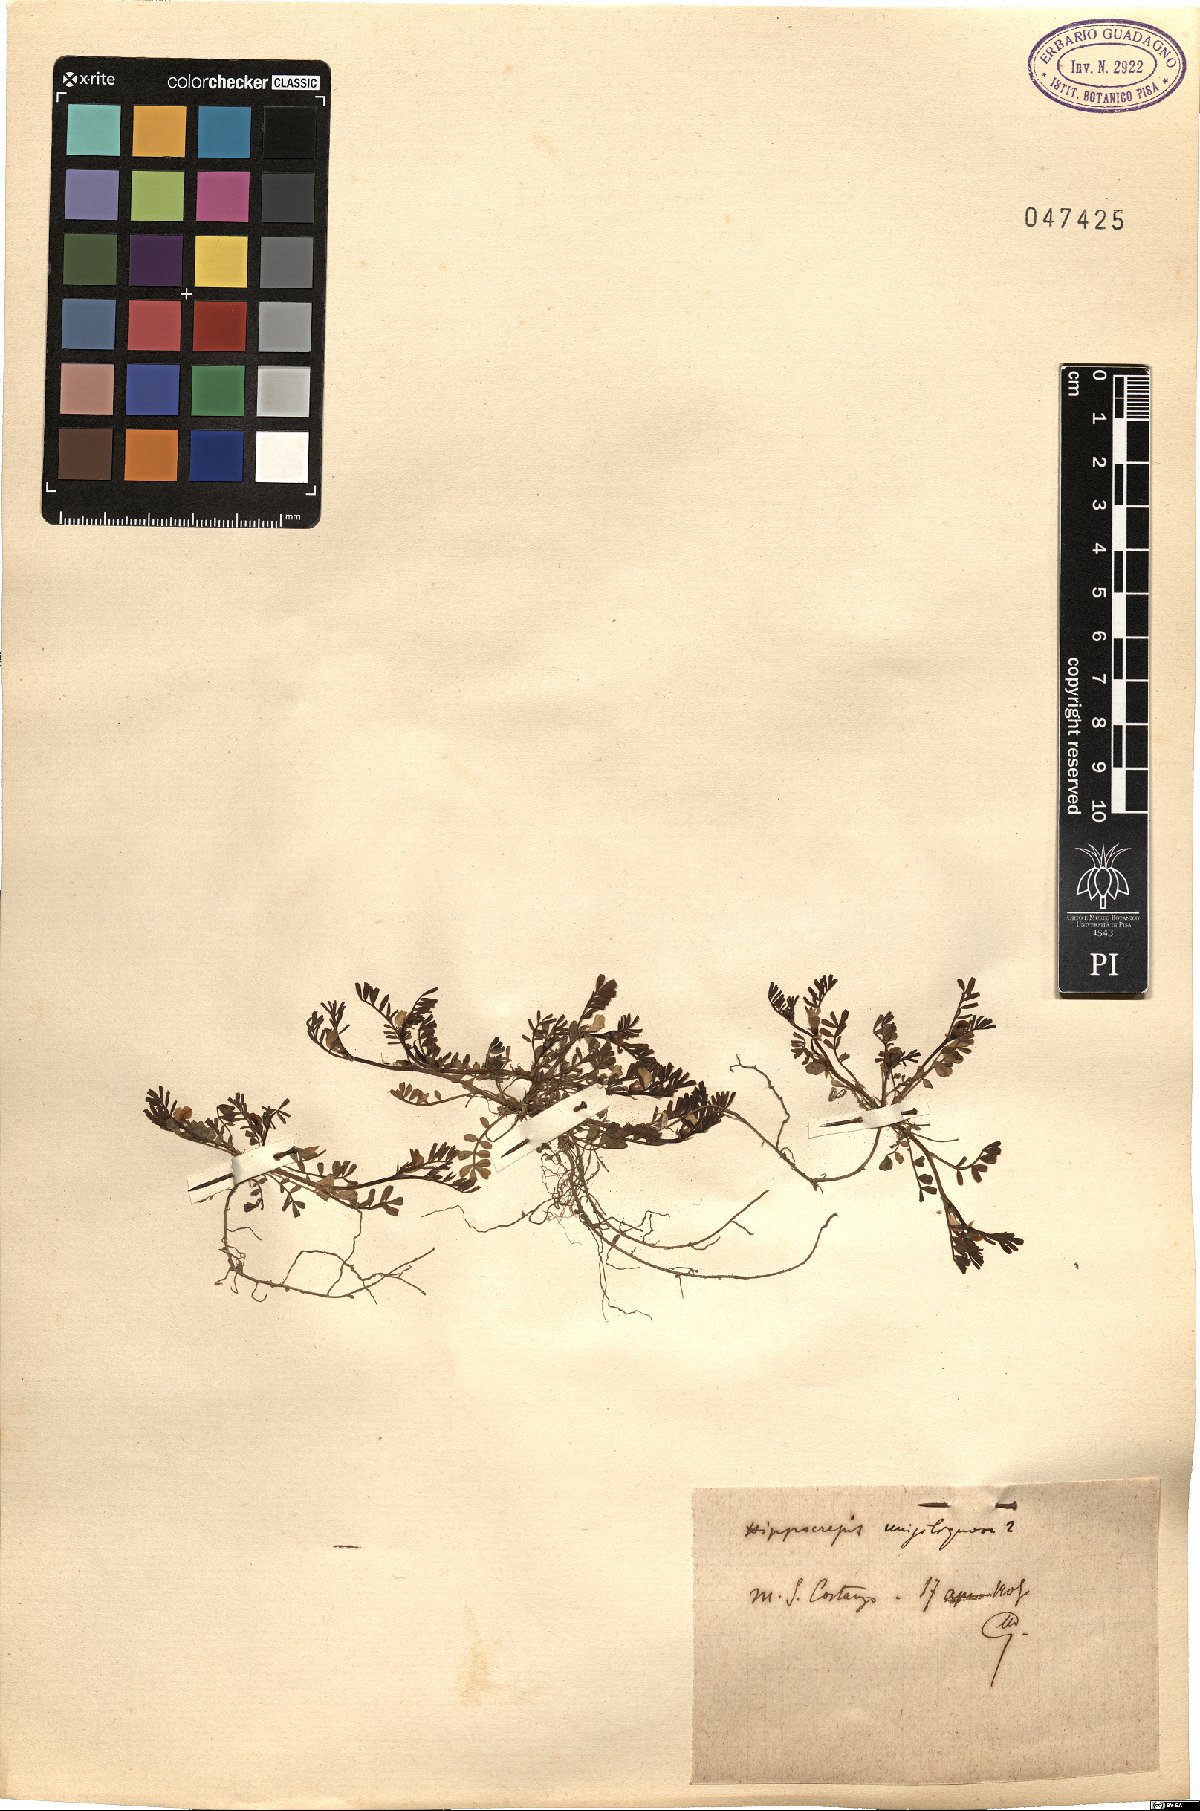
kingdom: Plantae
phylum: Tracheophyta
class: Magnoliopsida
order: Fabales
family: Fabaceae
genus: Hippocrepis
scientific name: Hippocrepis unisiliquosa
